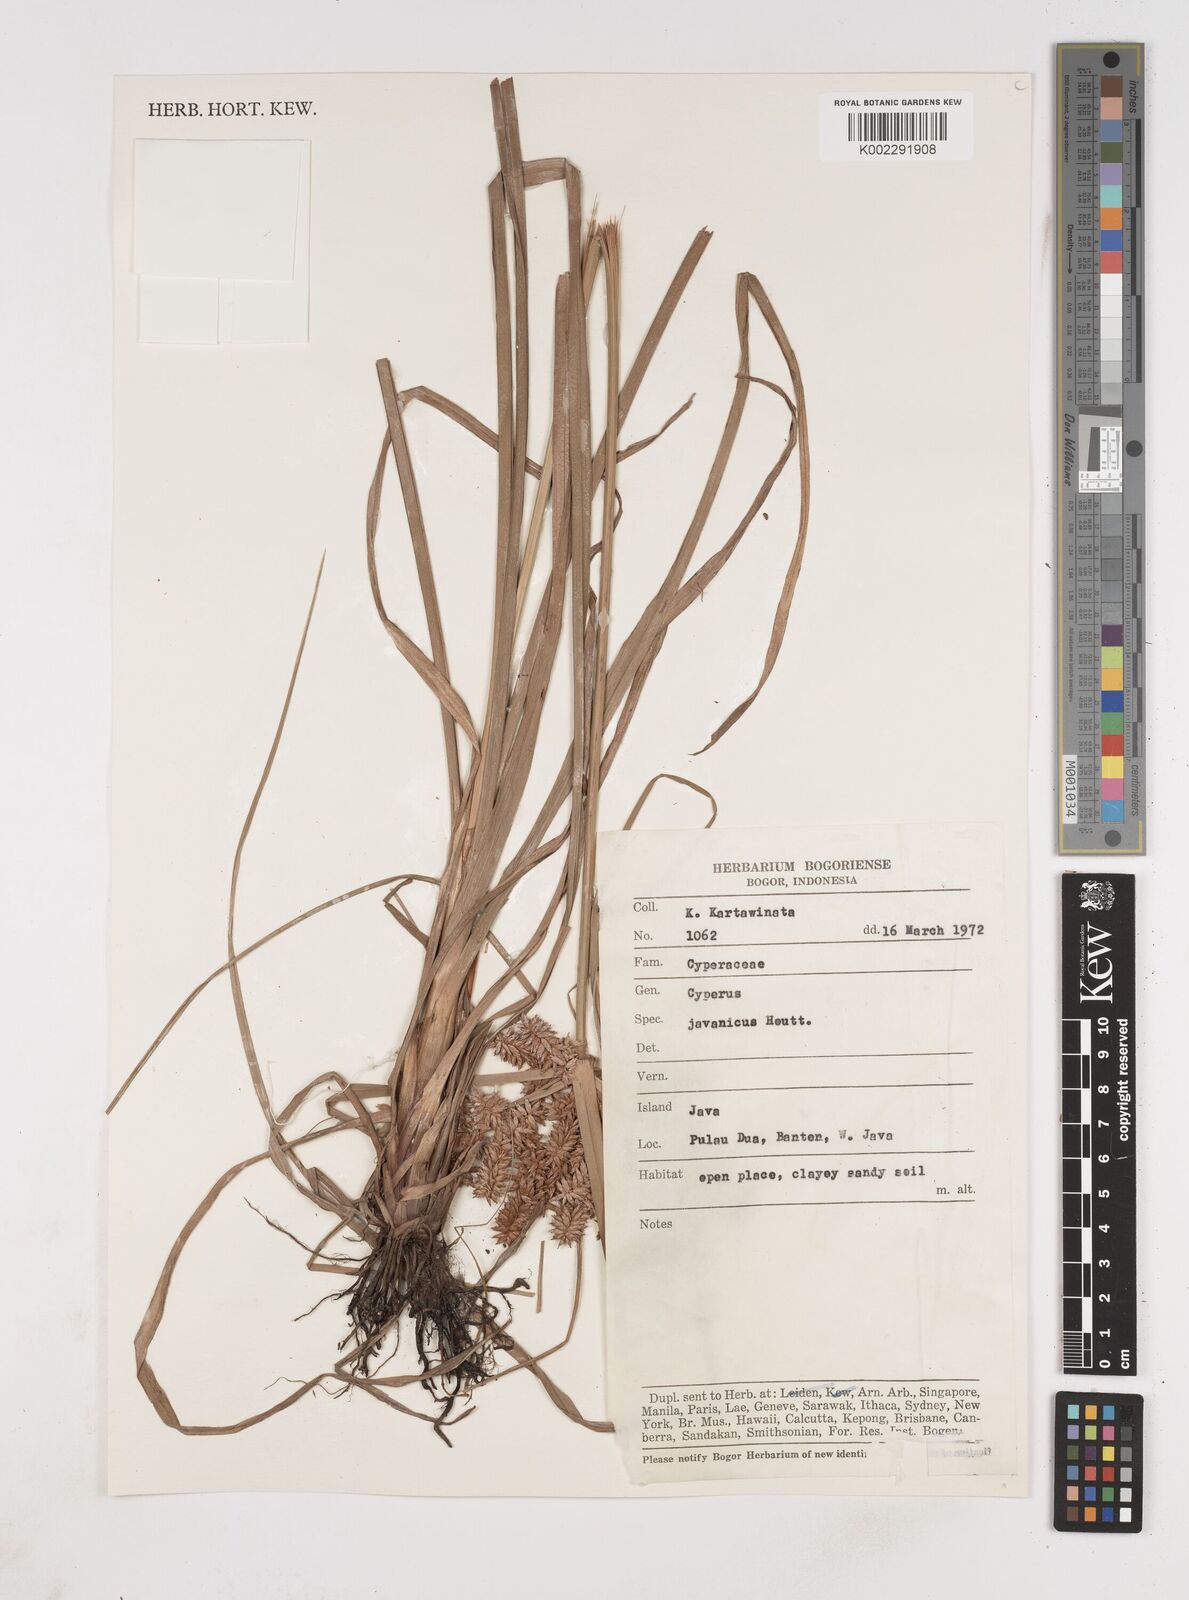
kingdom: Plantae
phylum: Tracheophyta
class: Liliopsida
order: Poales
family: Cyperaceae
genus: Cyperus
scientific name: Cyperus javanicus
